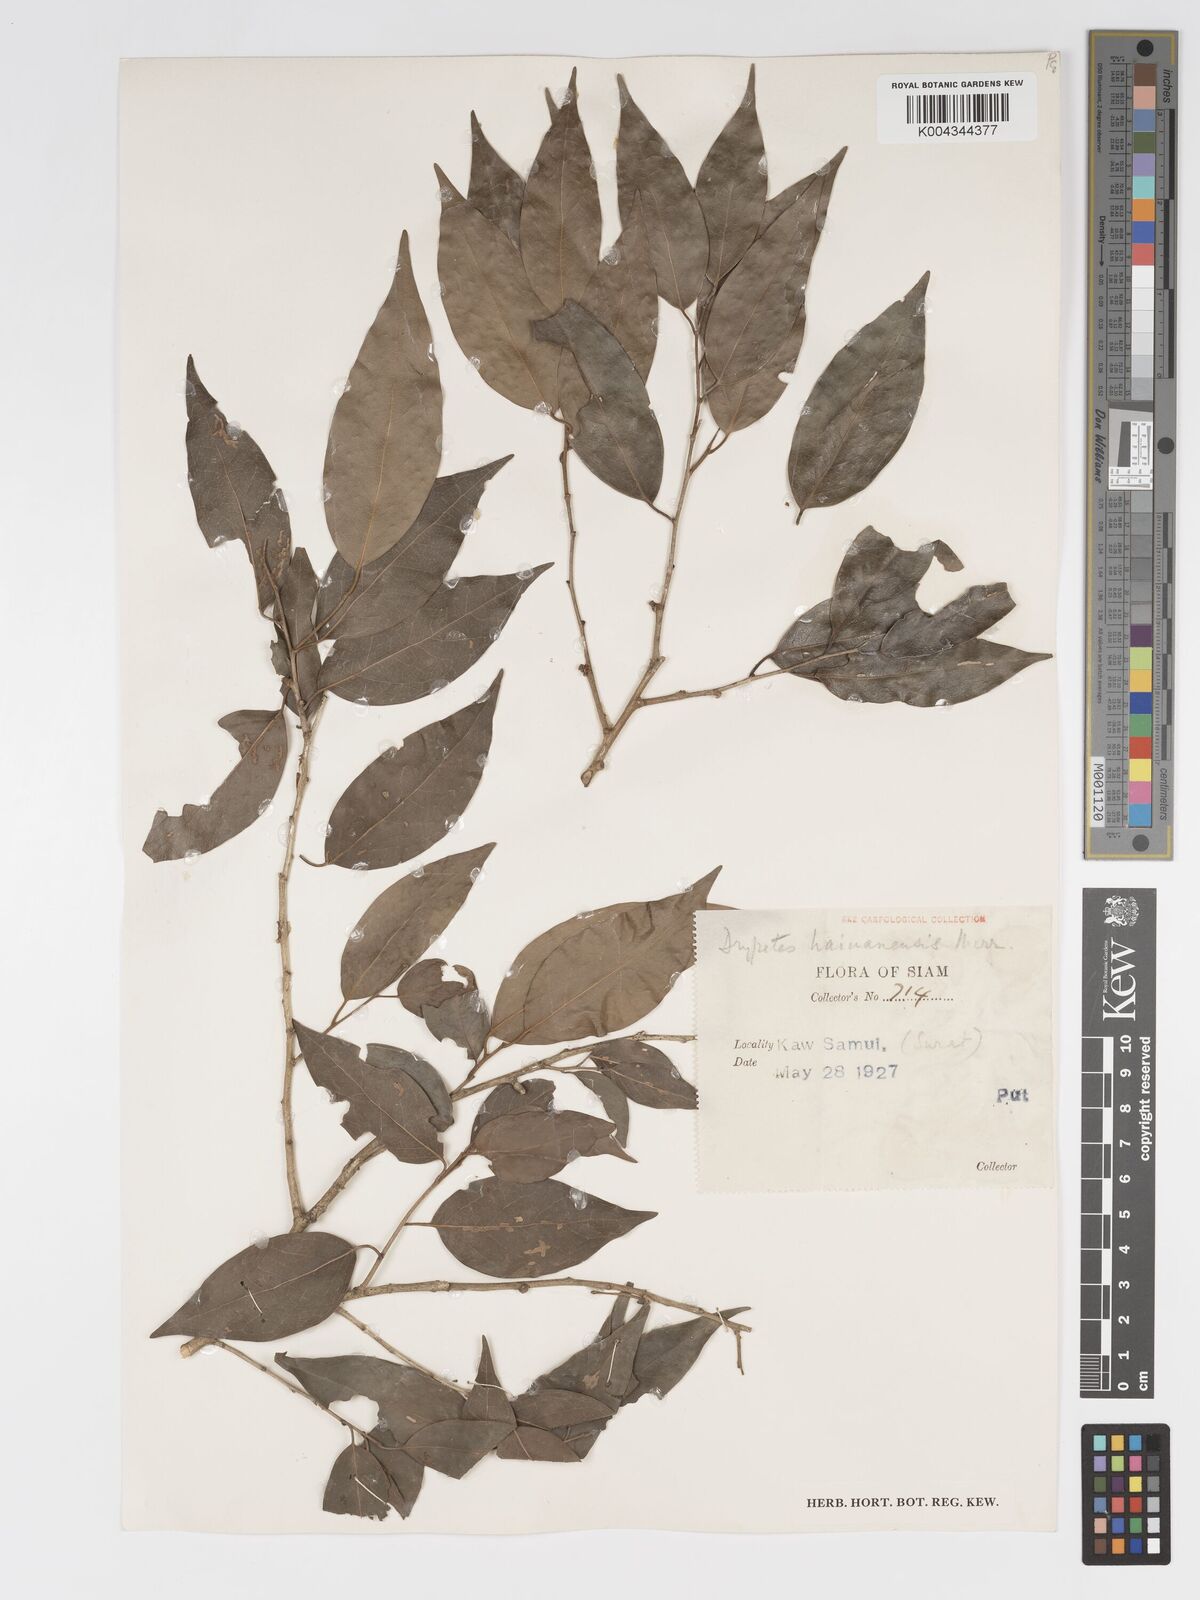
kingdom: Plantae
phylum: Tracheophyta
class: Magnoliopsida
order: Malpighiales
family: Putranjivaceae
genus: Drypetes
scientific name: Drypetes hainanensis
